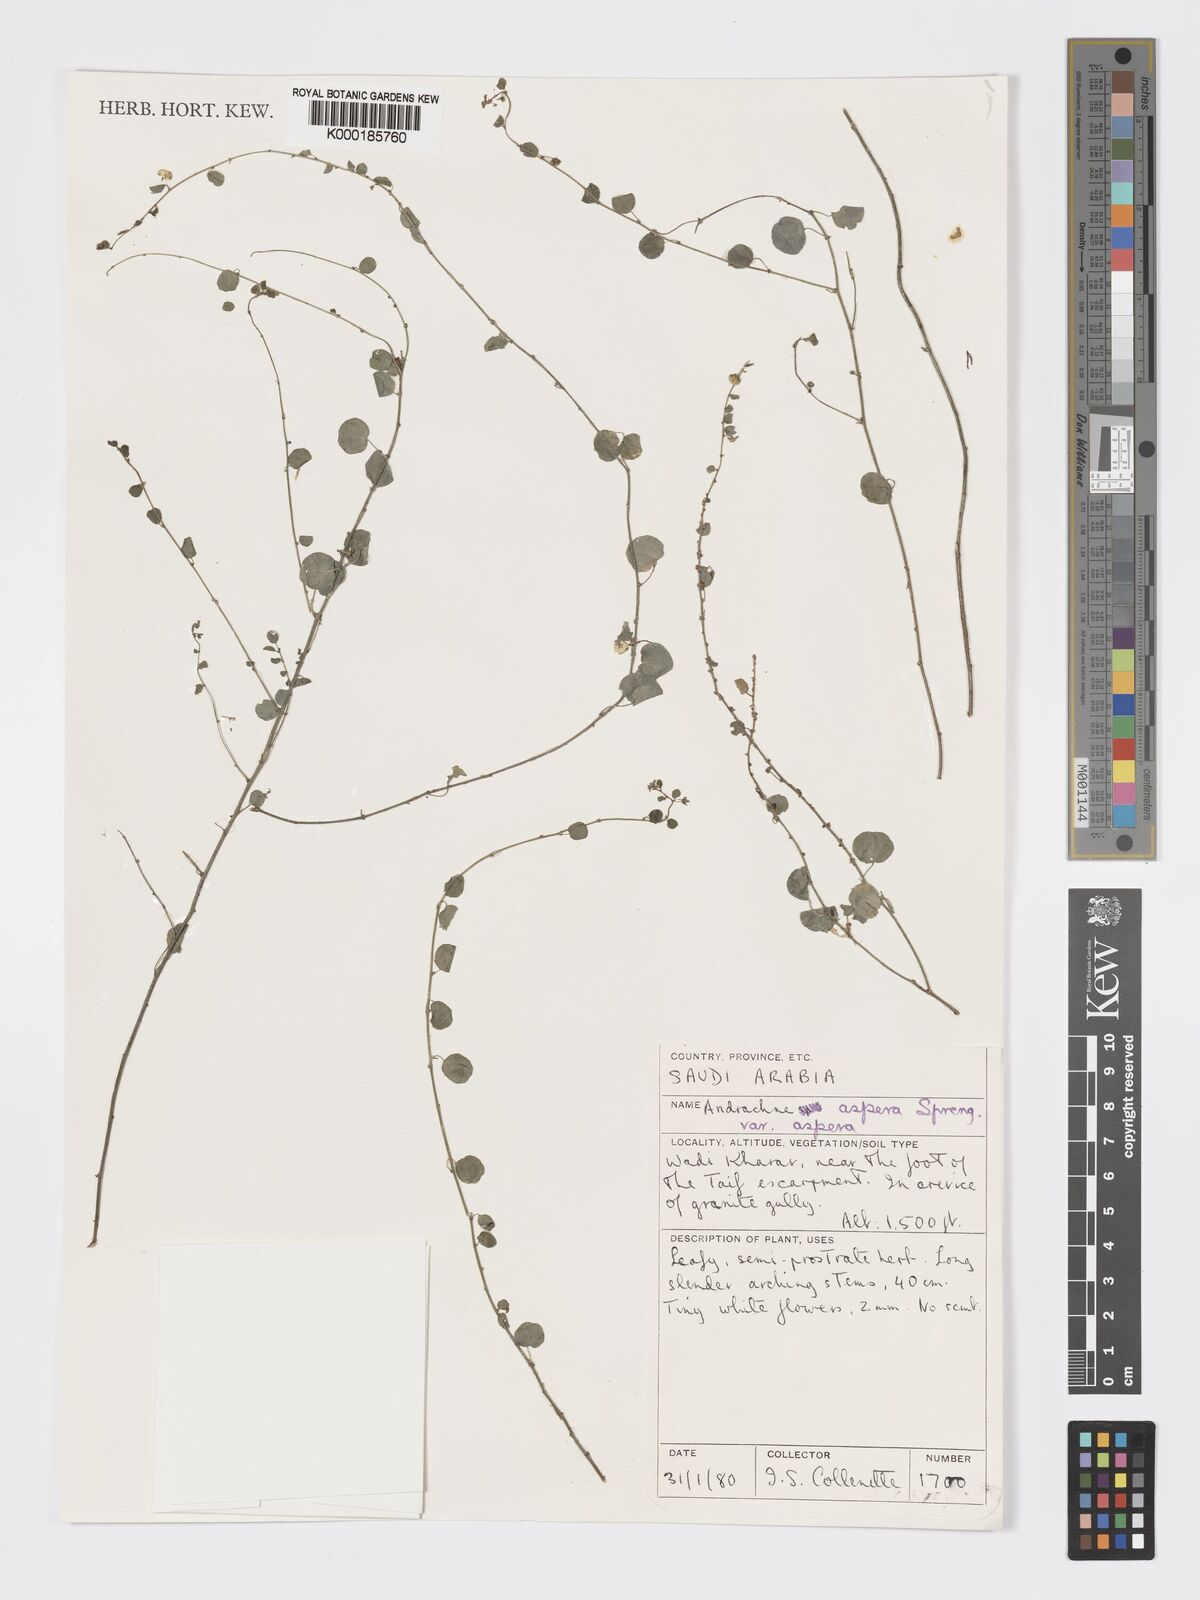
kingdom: Plantae
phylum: Tracheophyta
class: Magnoliopsida
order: Malpighiales
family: Phyllanthaceae
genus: Andrachne
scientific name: Andrachne aspera
